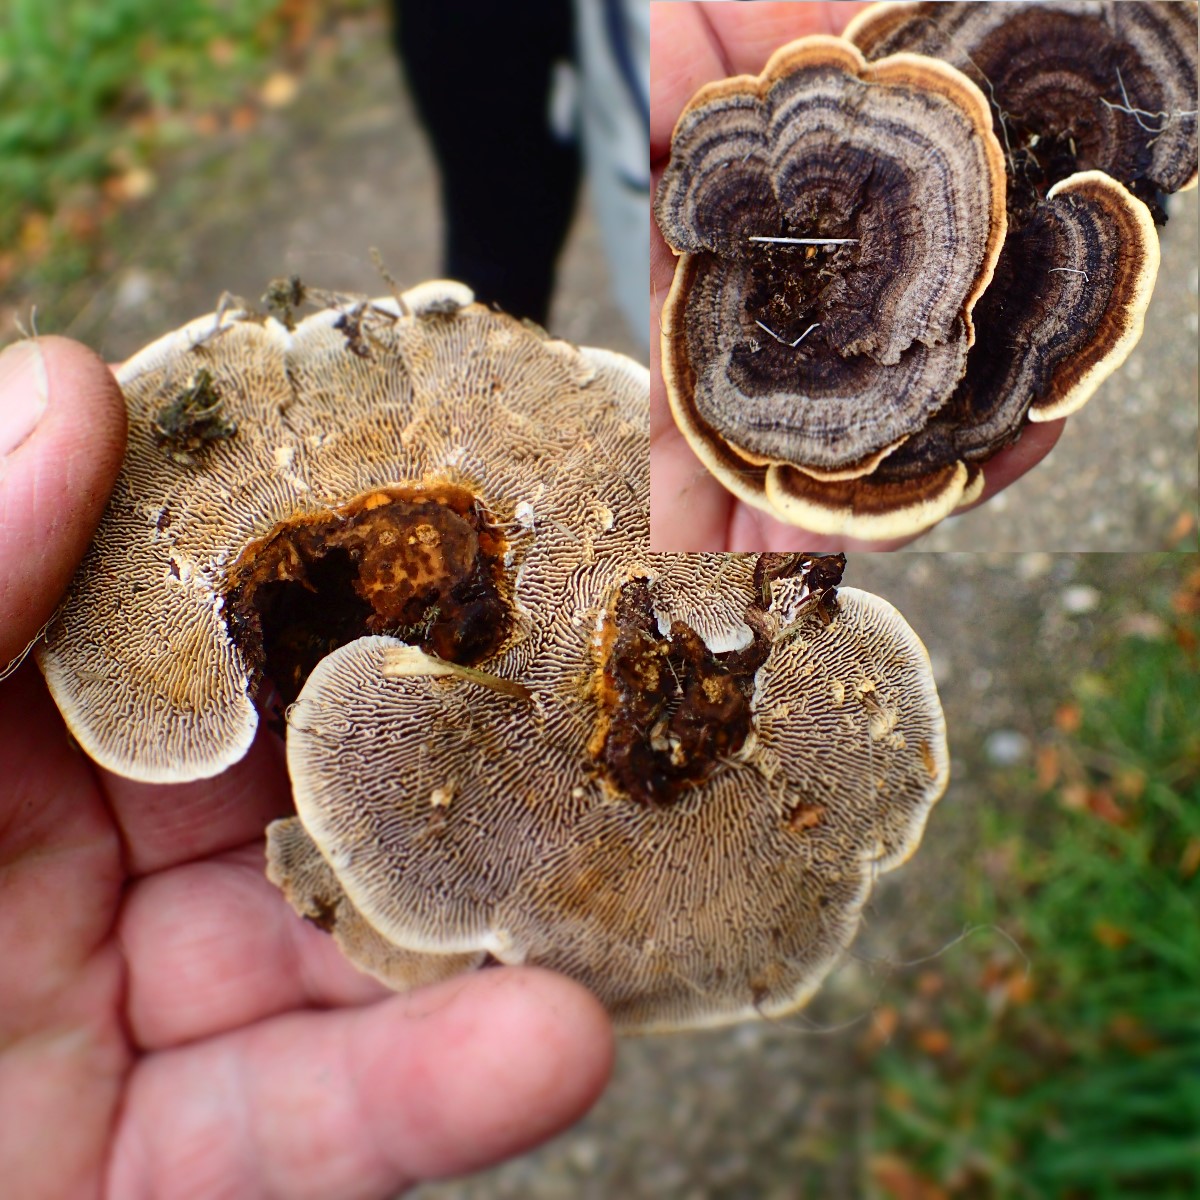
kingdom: Fungi
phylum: Basidiomycota
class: Agaricomycetes
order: Gloeophyllales
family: Gloeophyllaceae
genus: Gloeophyllum
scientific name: Gloeophyllum sepiarium
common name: fyrre-korkhat
